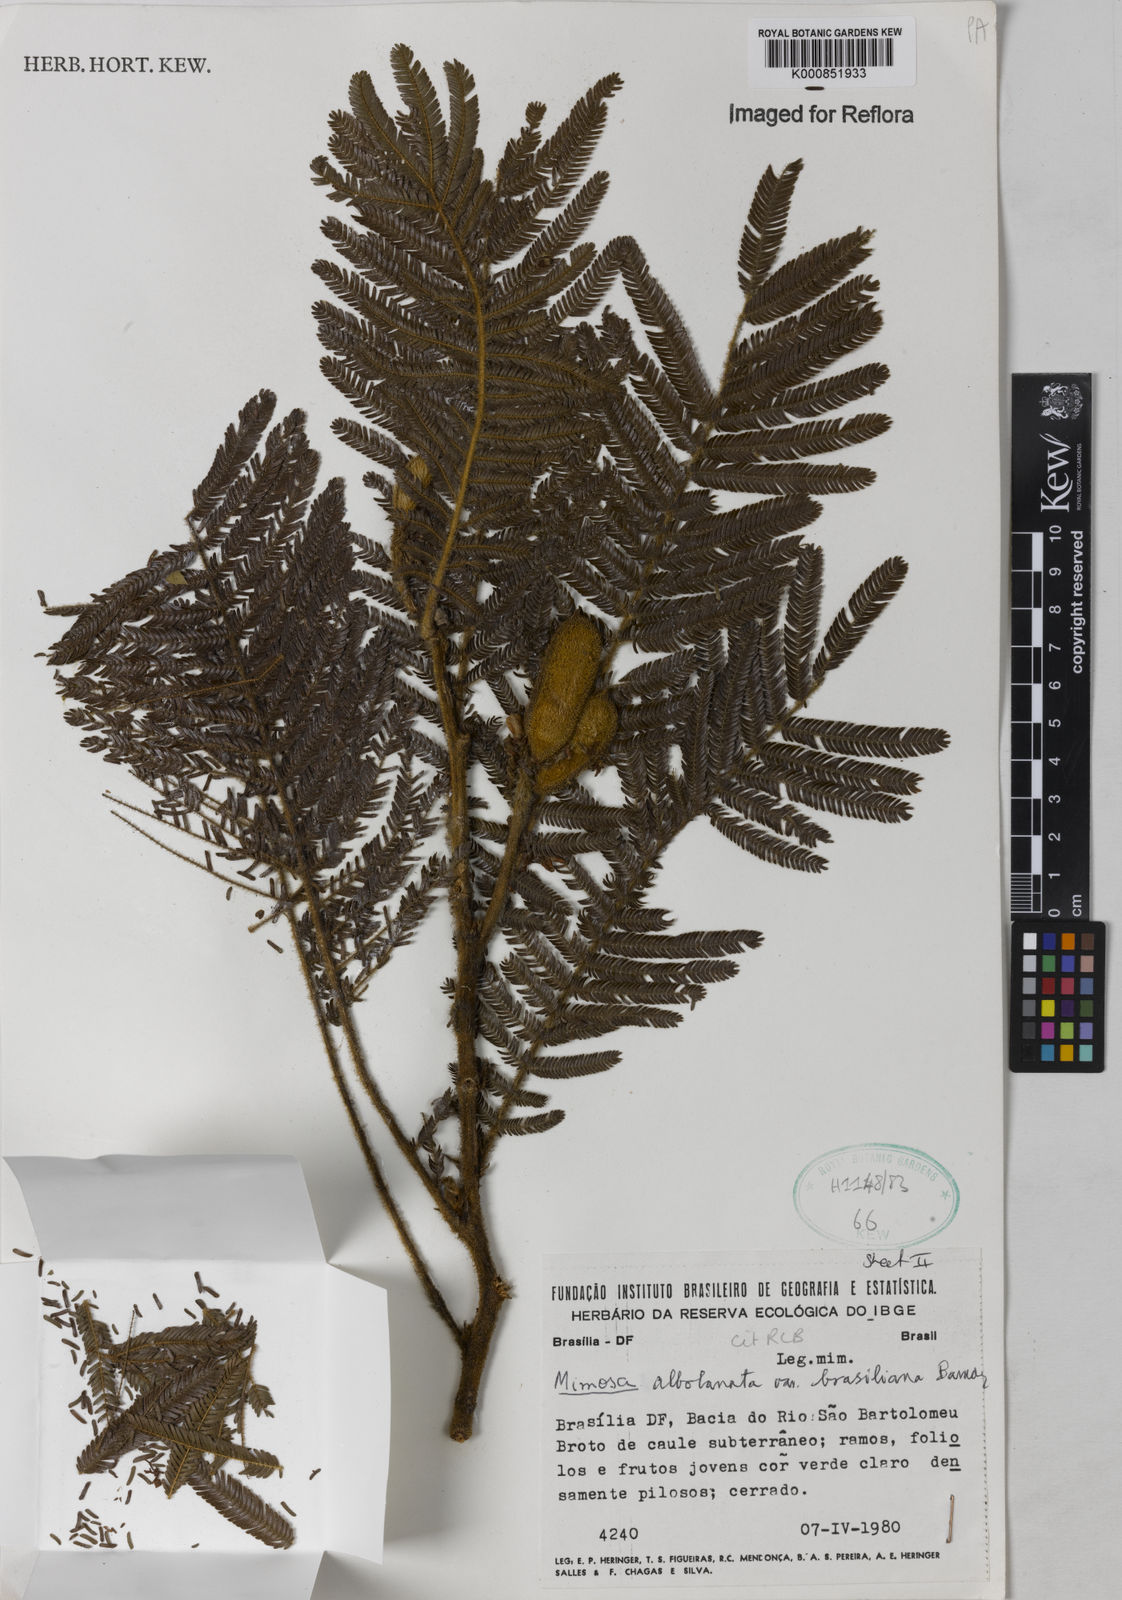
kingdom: Plantae
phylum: Tracheophyta
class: Magnoliopsida
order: Fabales
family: Fabaceae
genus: Mimosa
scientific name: Mimosa albolanata
